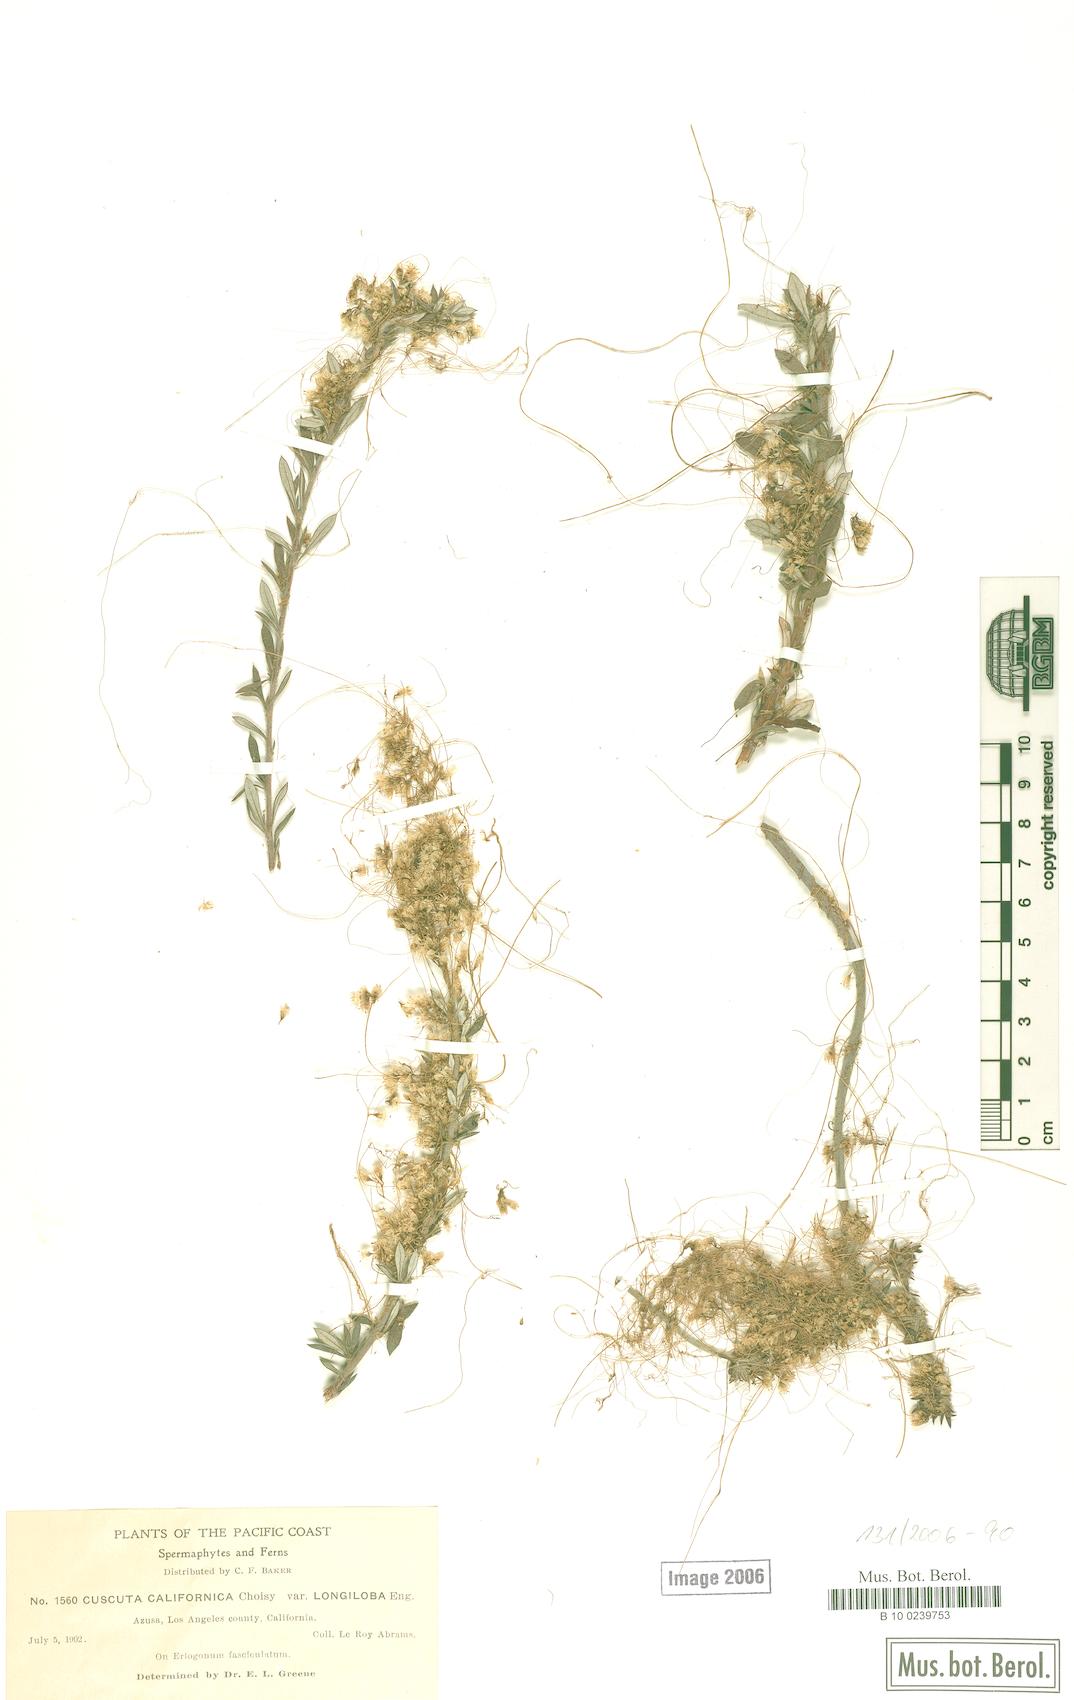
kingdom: Plantae
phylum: Tracheophyta
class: Magnoliopsida
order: Solanales
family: Convolvulaceae
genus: Cuscuta
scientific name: Cuscuta californica
